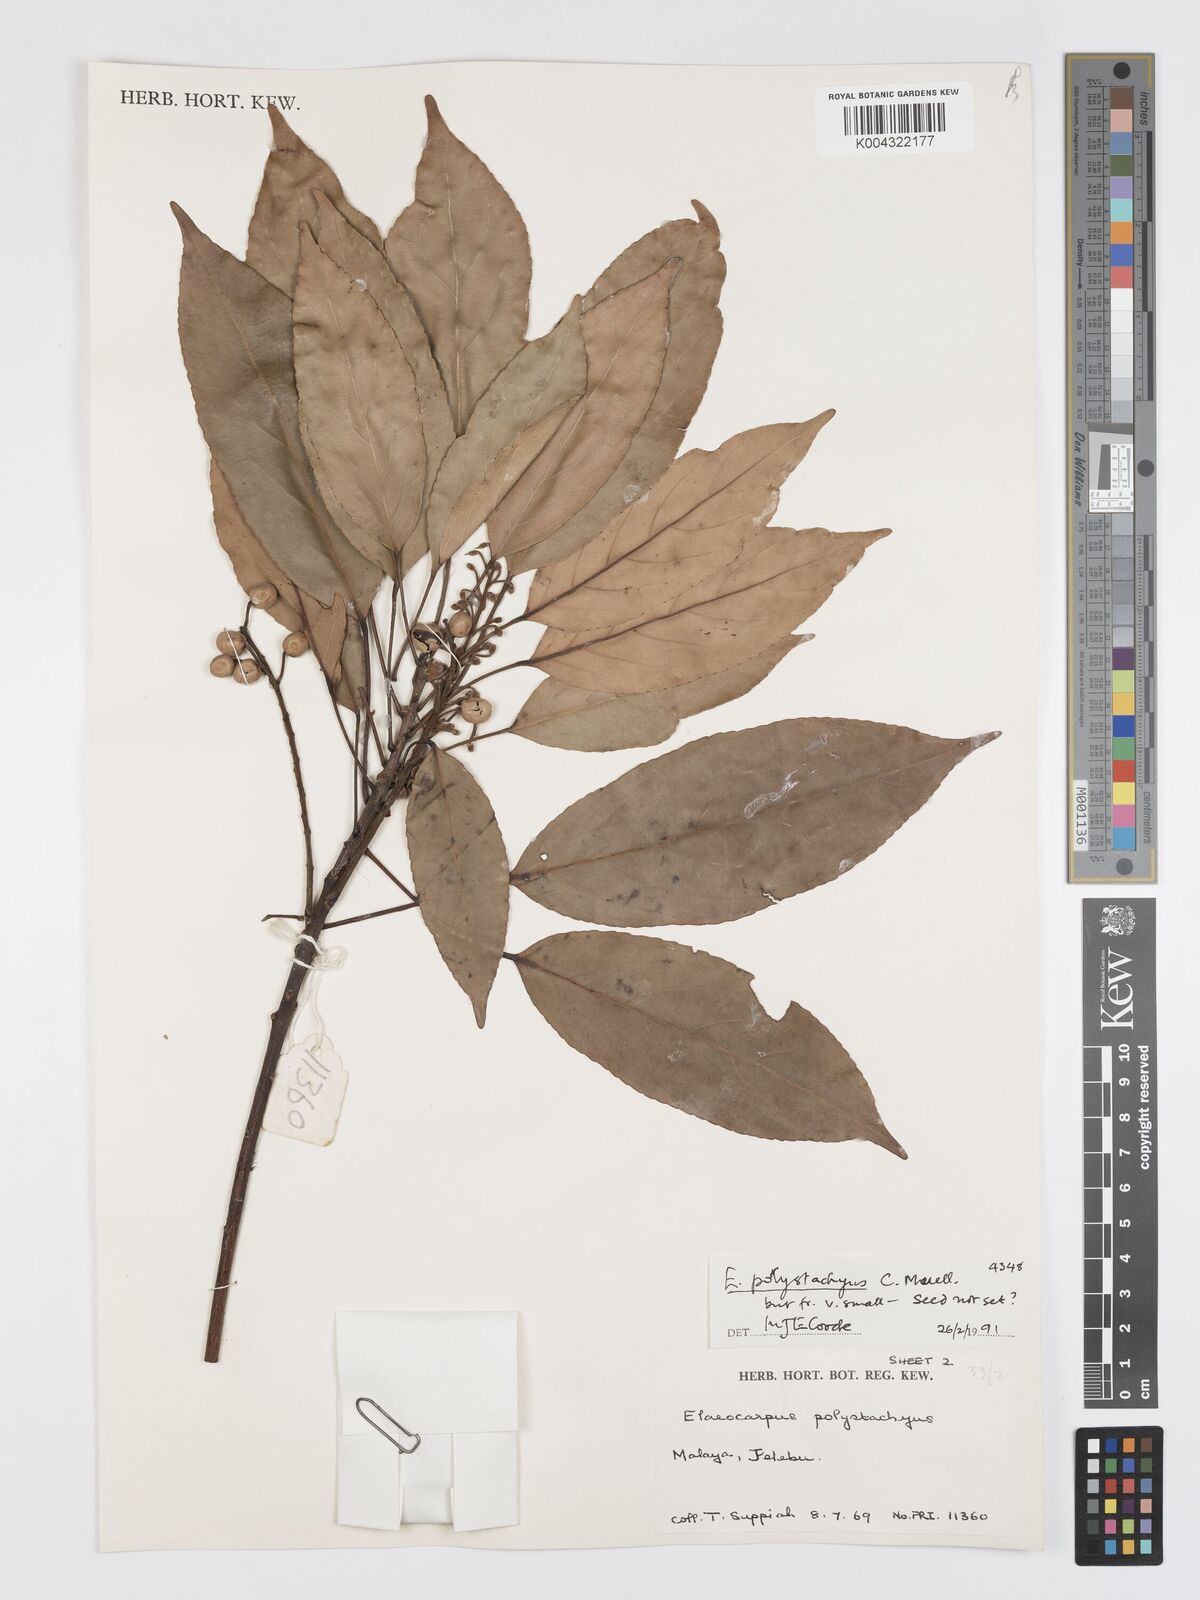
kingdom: Plantae
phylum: Tracheophyta
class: Magnoliopsida
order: Oxalidales
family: Elaeocarpaceae
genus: Elaeocarpus
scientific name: Elaeocarpus polystachyus
